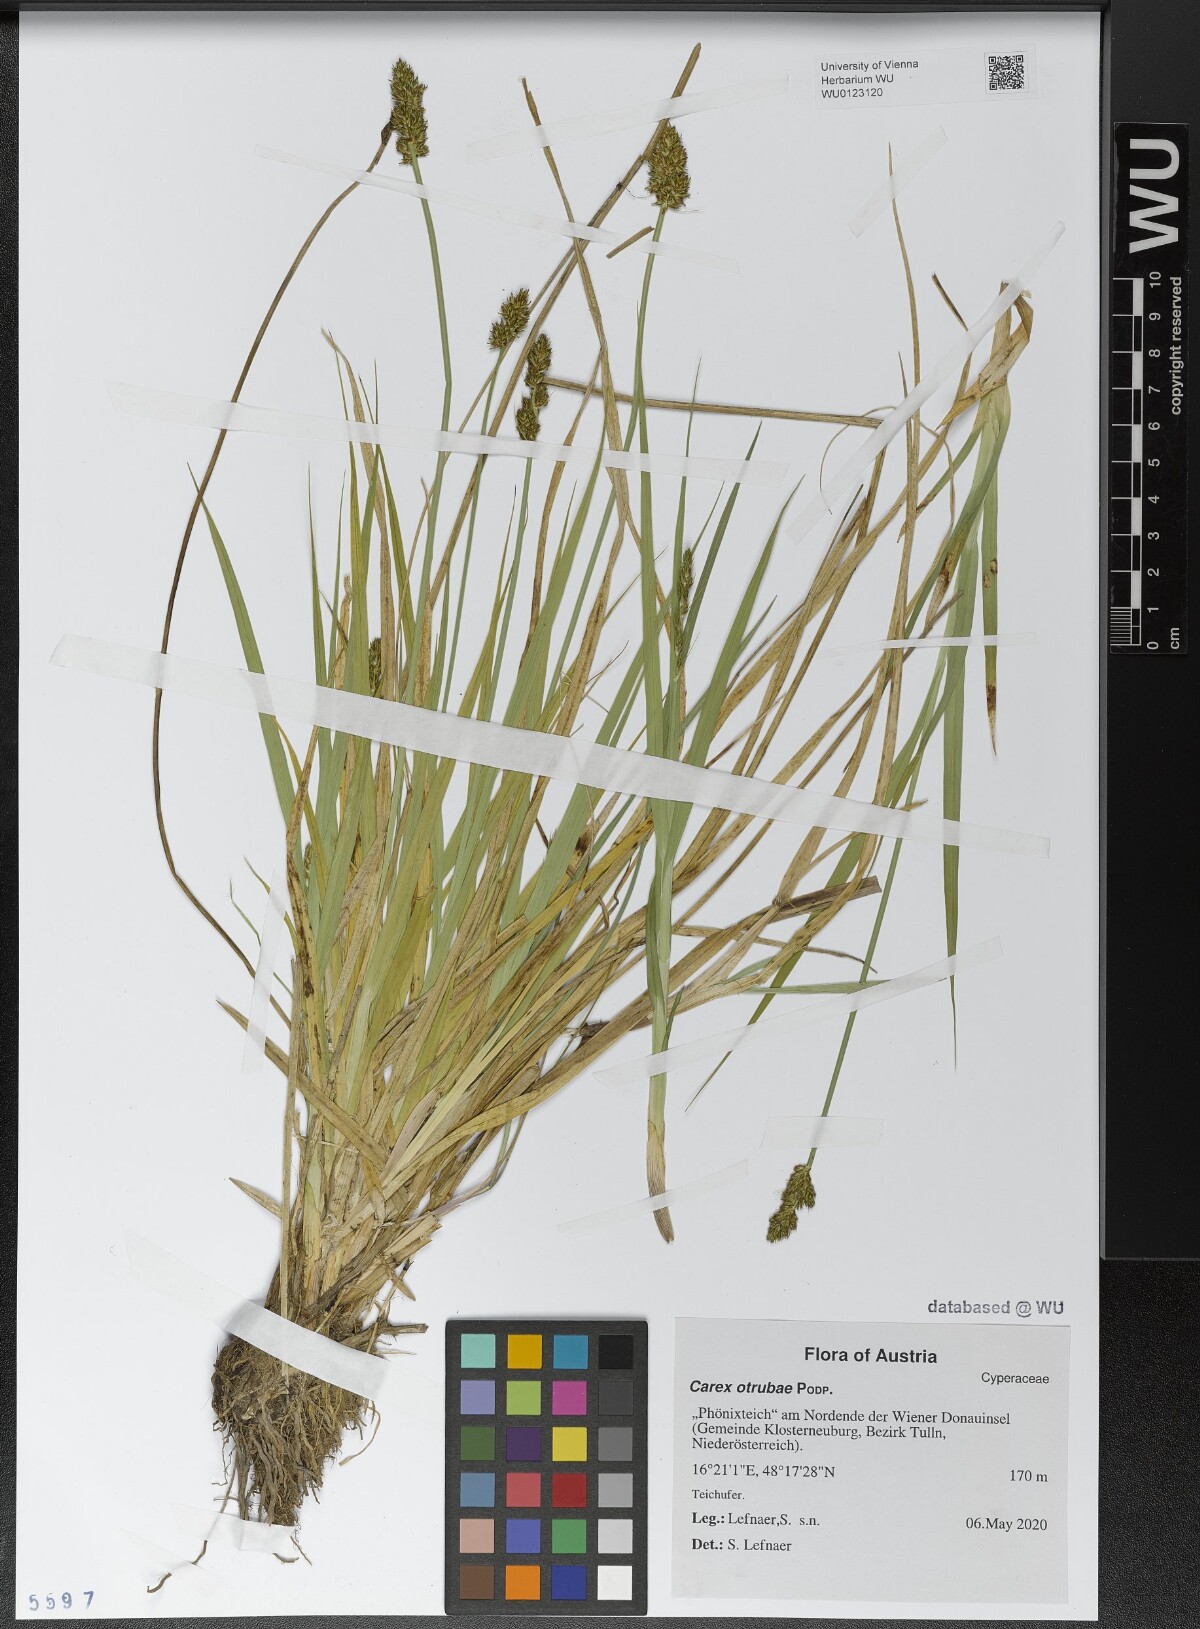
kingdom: Plantae
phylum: Tracheophyta
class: Liliopsida
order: Poales
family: Cyperaceae
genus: Carex
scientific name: Carex otrubae
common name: False fox-sedge
